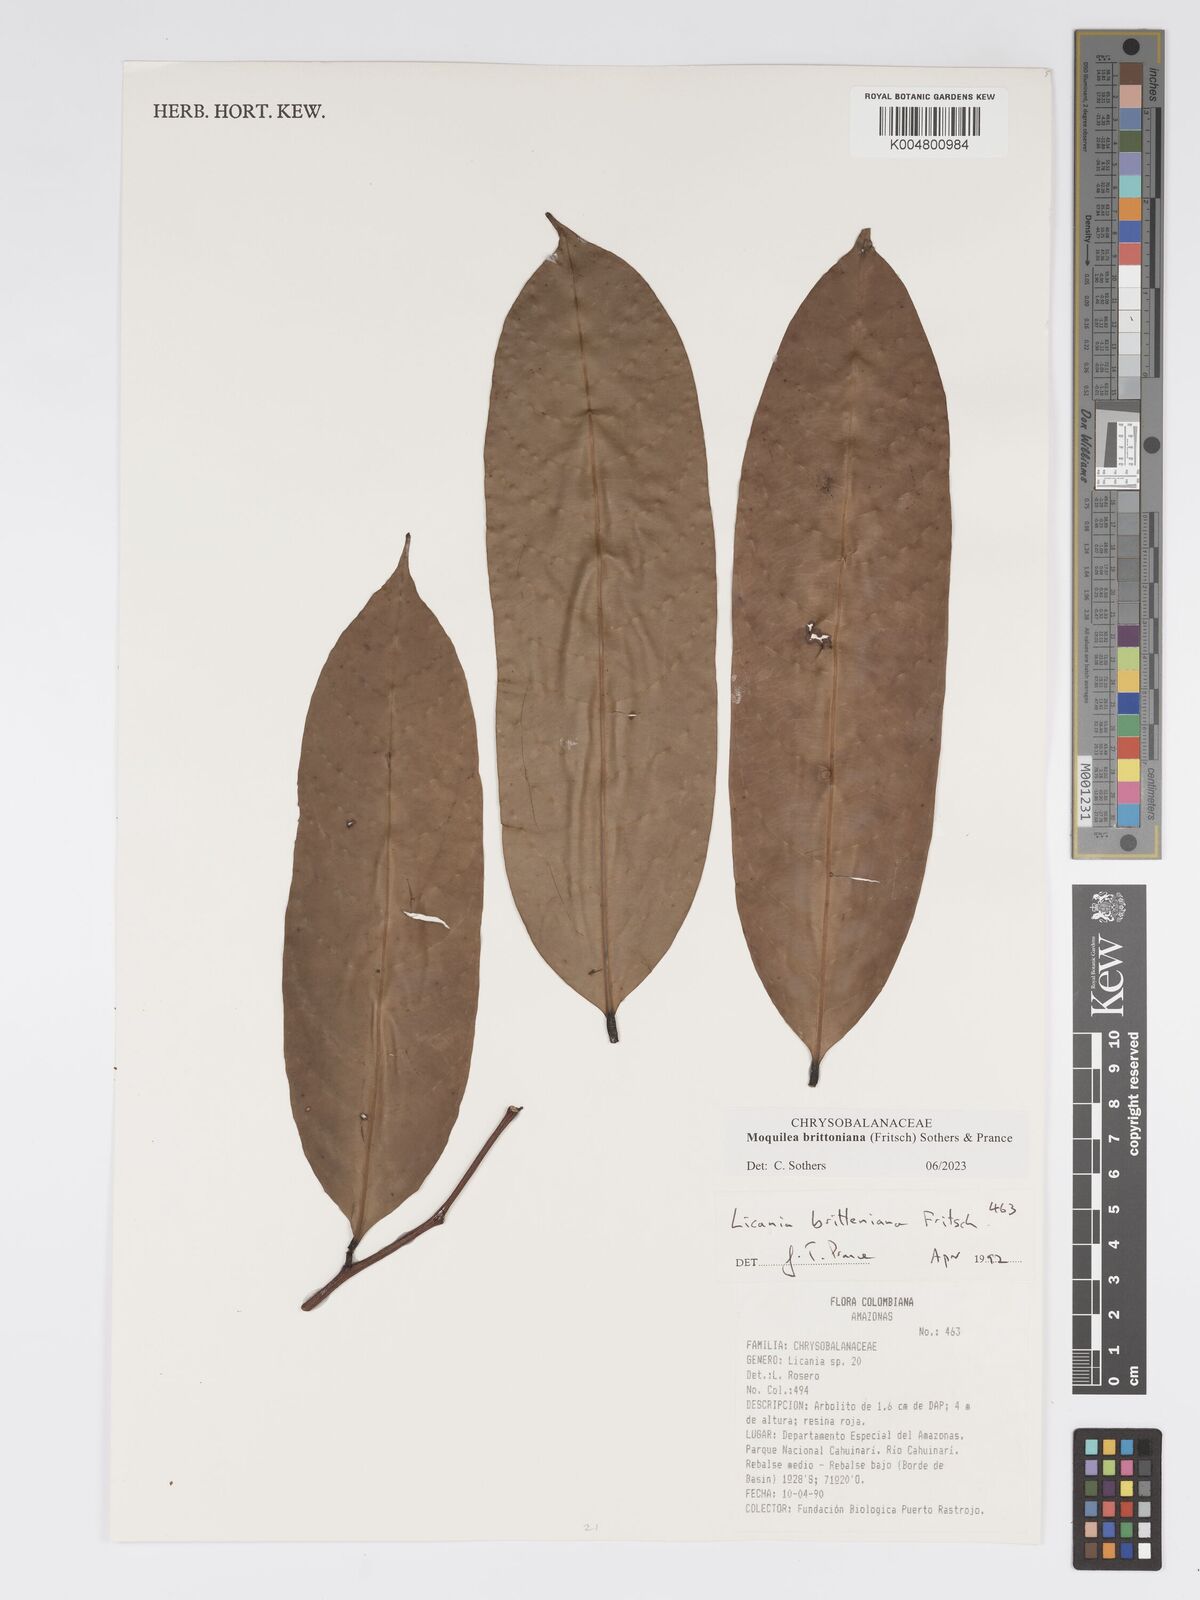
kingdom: Plantae
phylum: Tracheophyta
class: Magnoliopsida
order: Malpighiales
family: Chrysobalanaceae
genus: Moquilea
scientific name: Moquilea brittoniana
